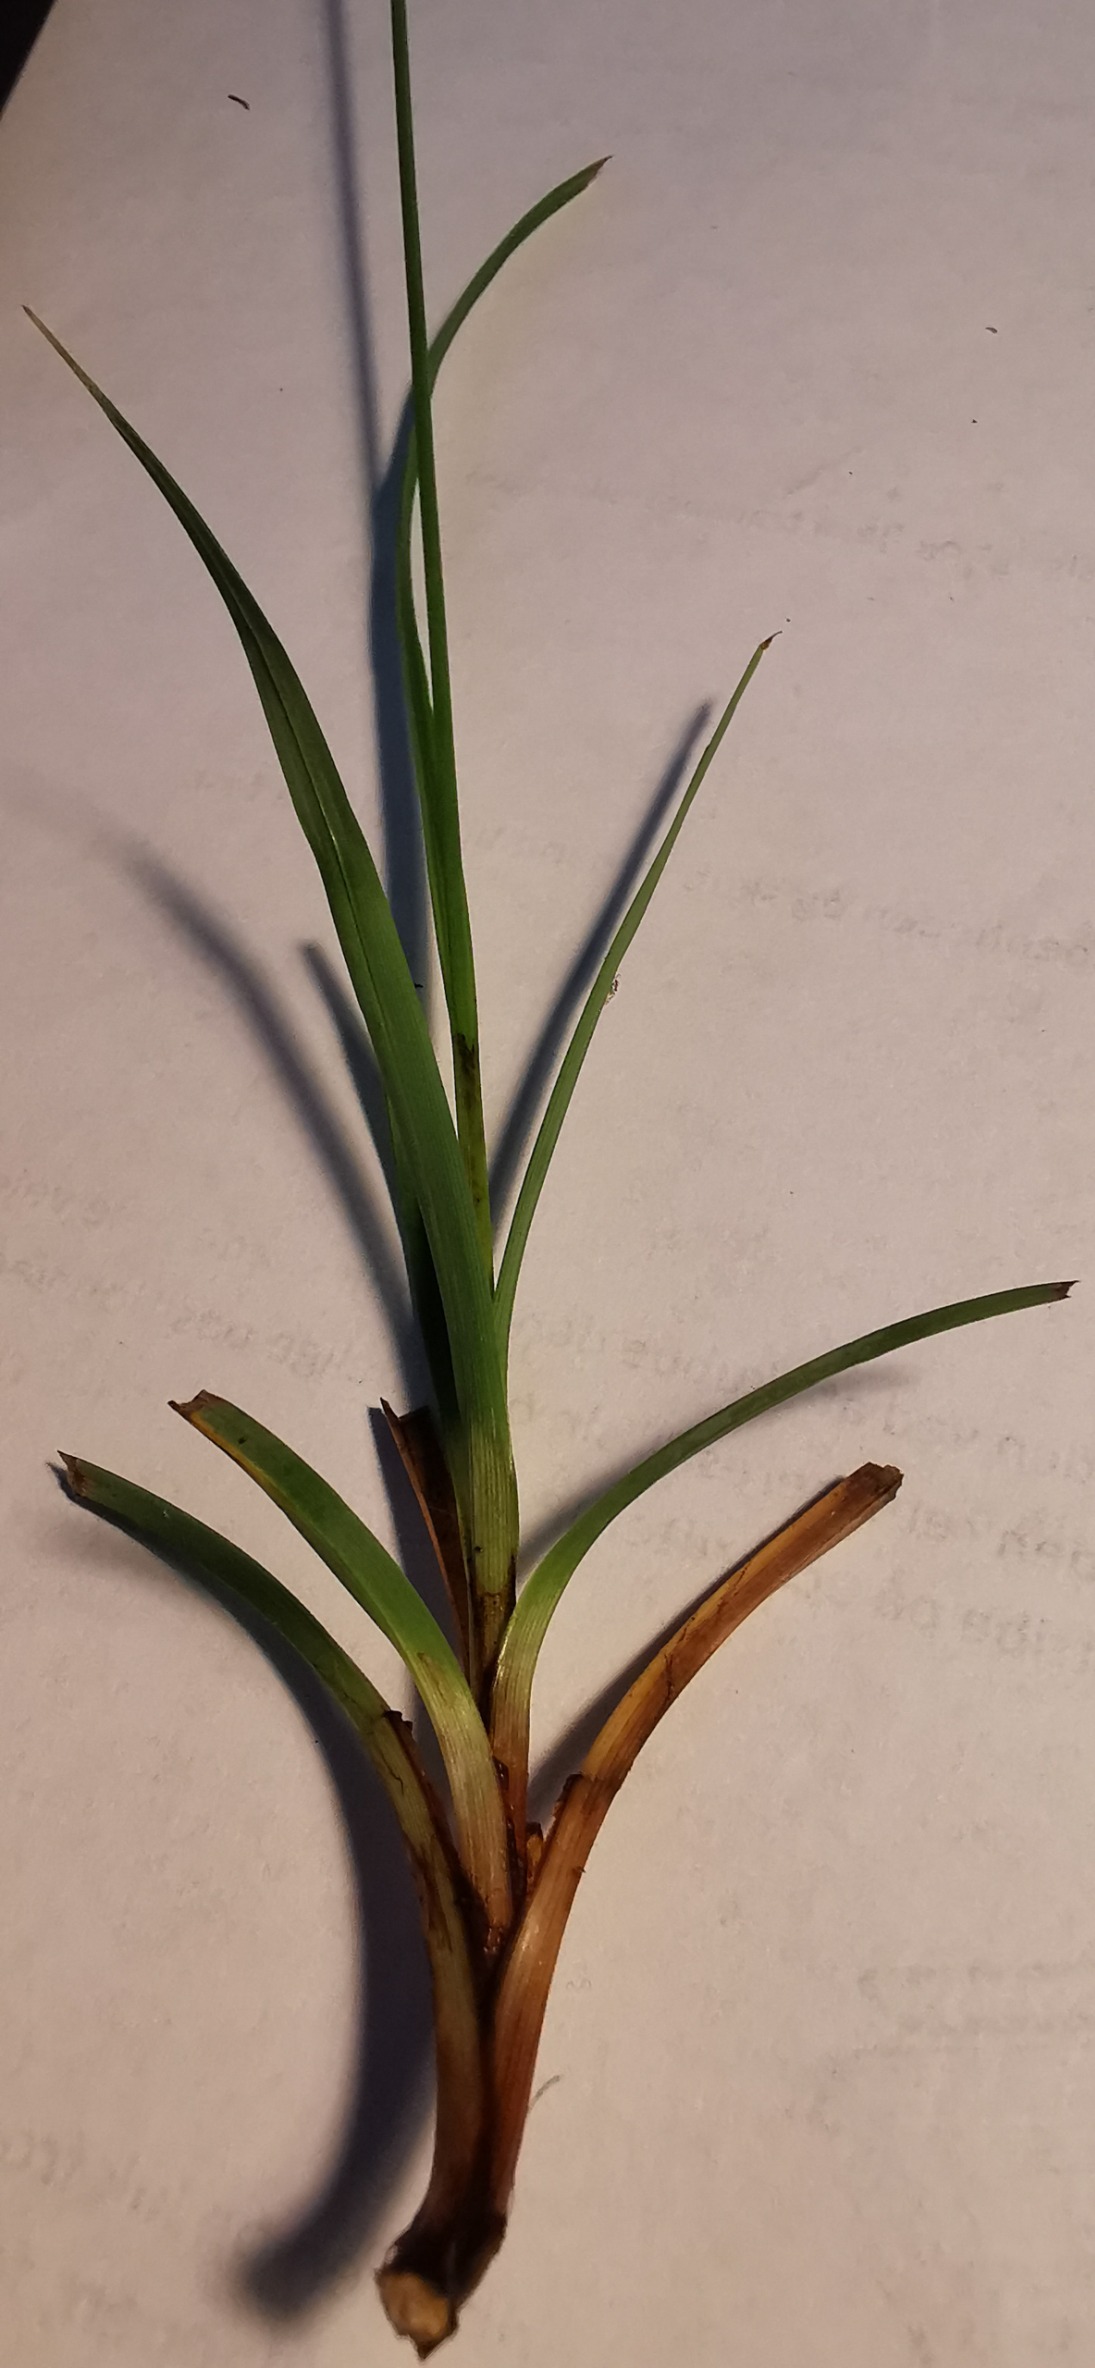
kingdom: Plantae
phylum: Tracheophyta
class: Liliopsida
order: Poales
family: Cyperaceae
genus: Carex
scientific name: Carex flacca
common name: Blågrøn star
